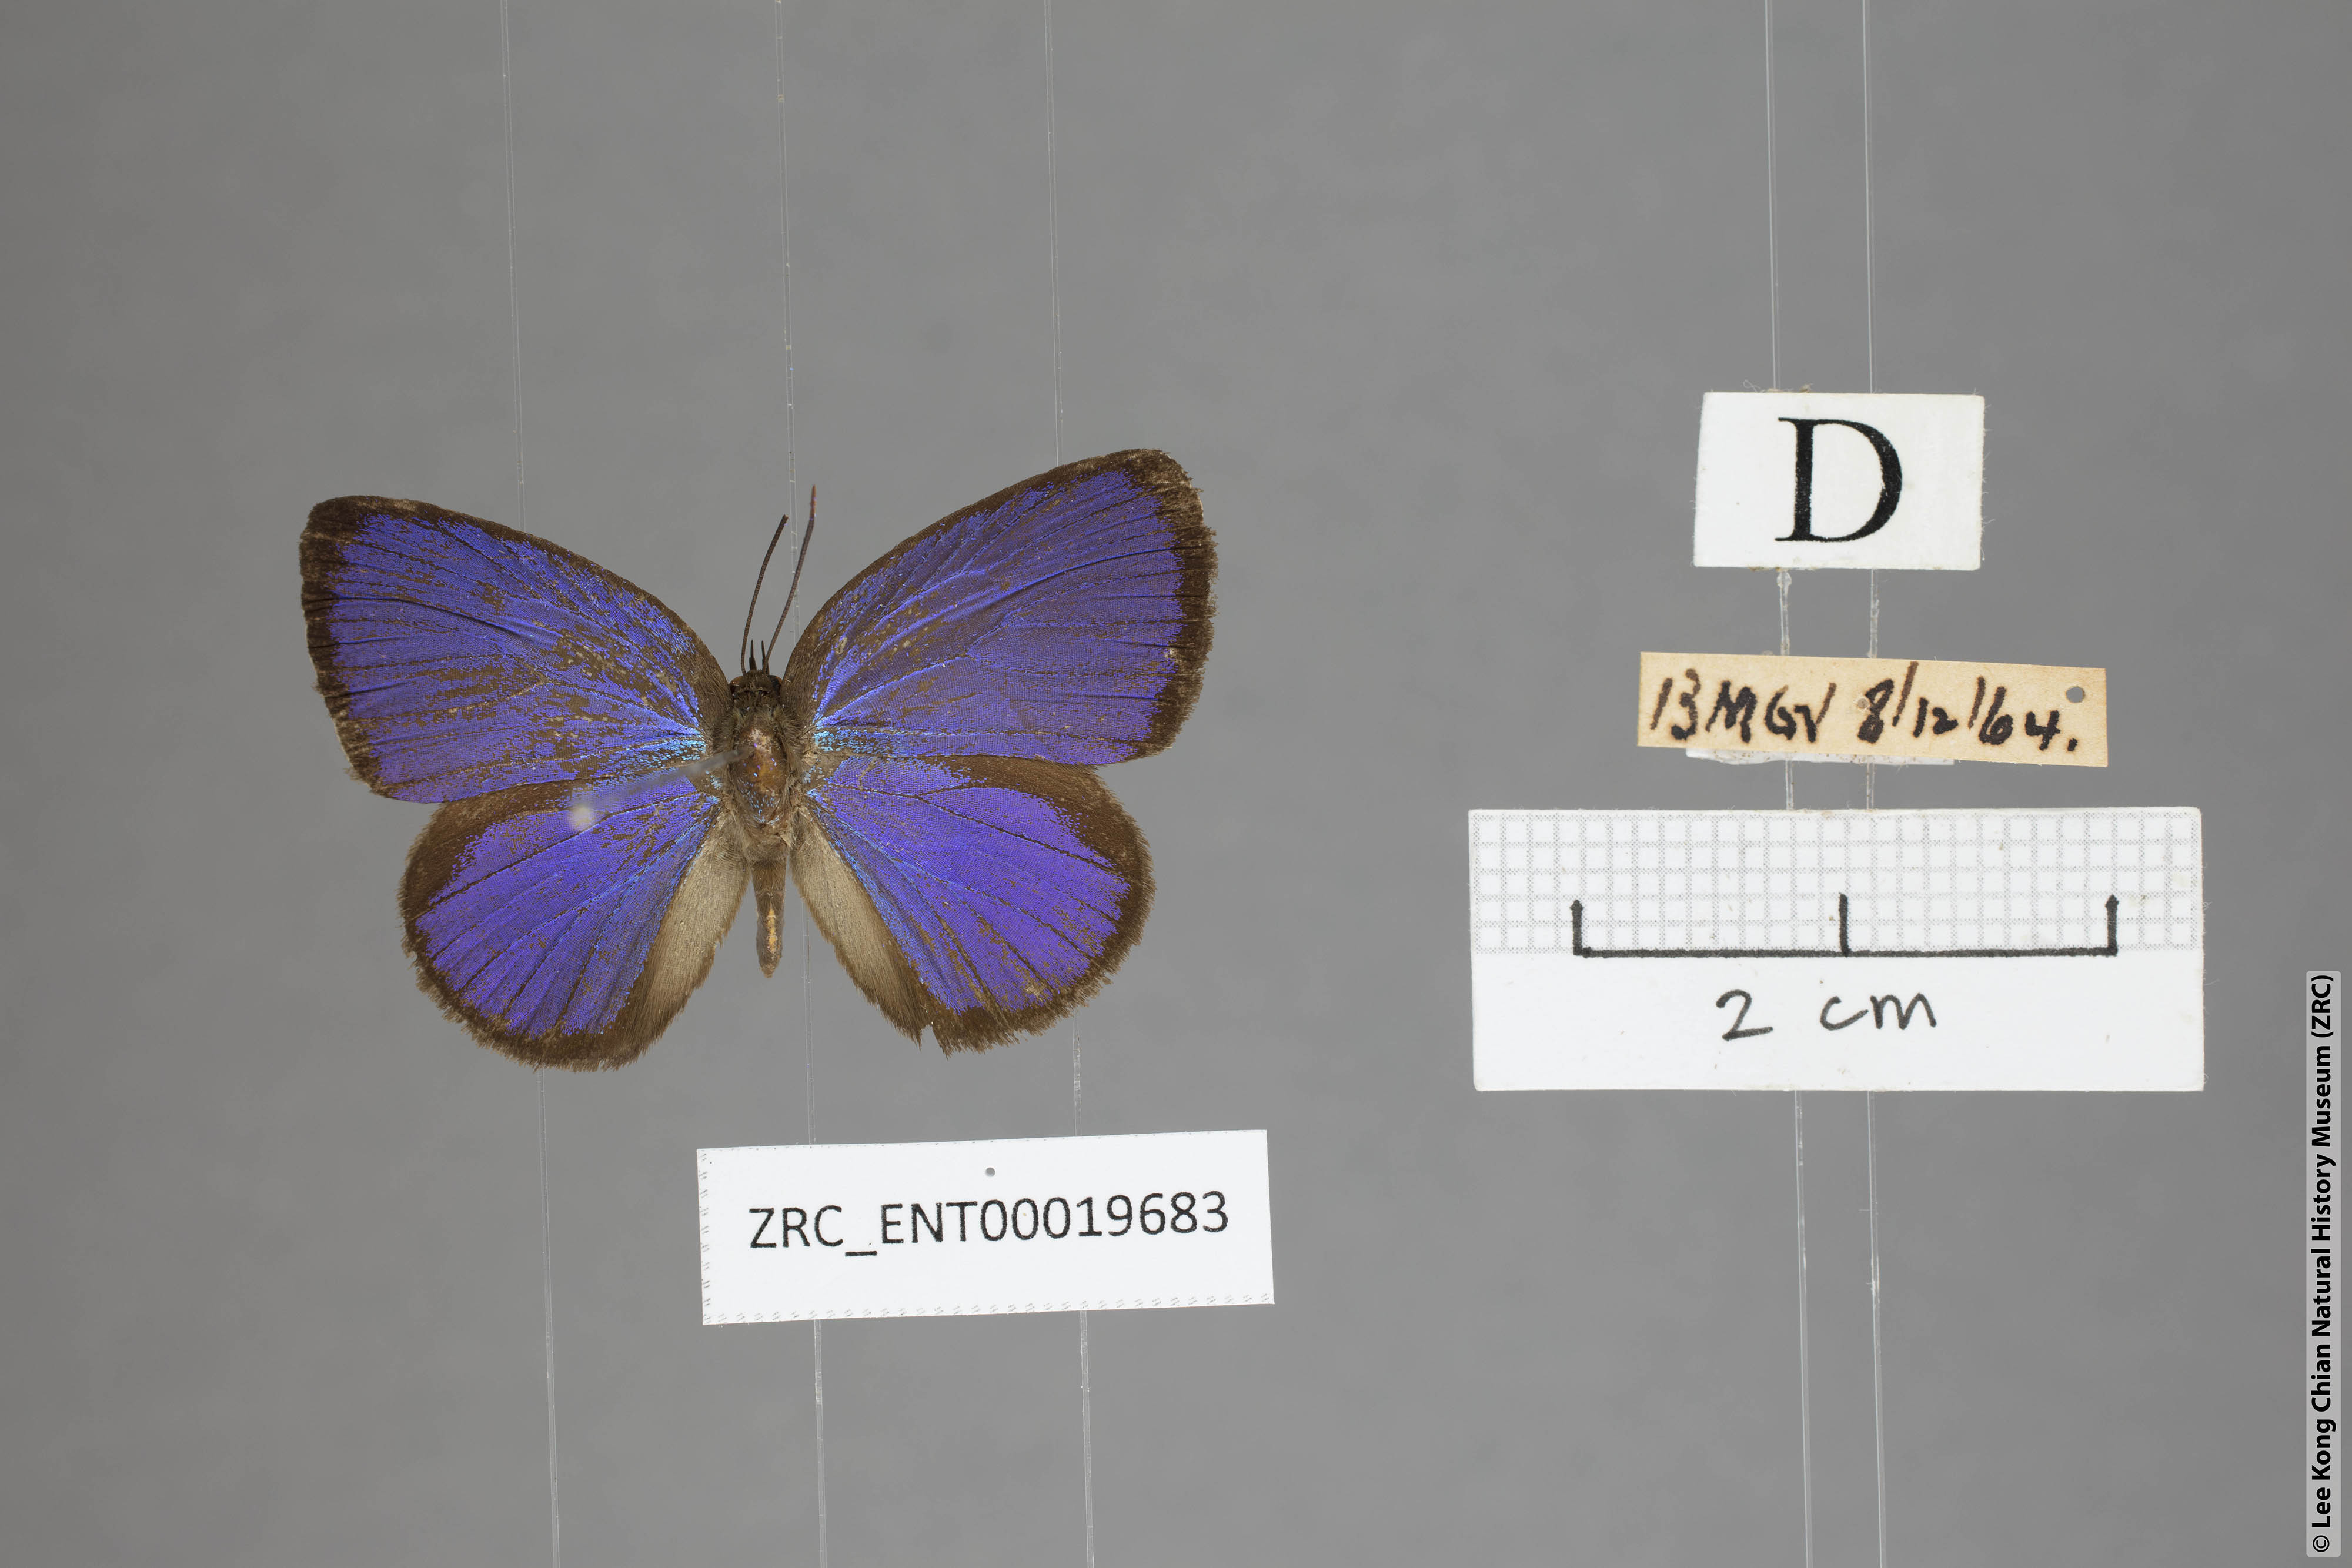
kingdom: Animalia
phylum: Arthropoda
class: Insecta
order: Lepidoptera
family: Lycaenidae
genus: Arhopala
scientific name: Arhopala moorei
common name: Moore's oakblue
